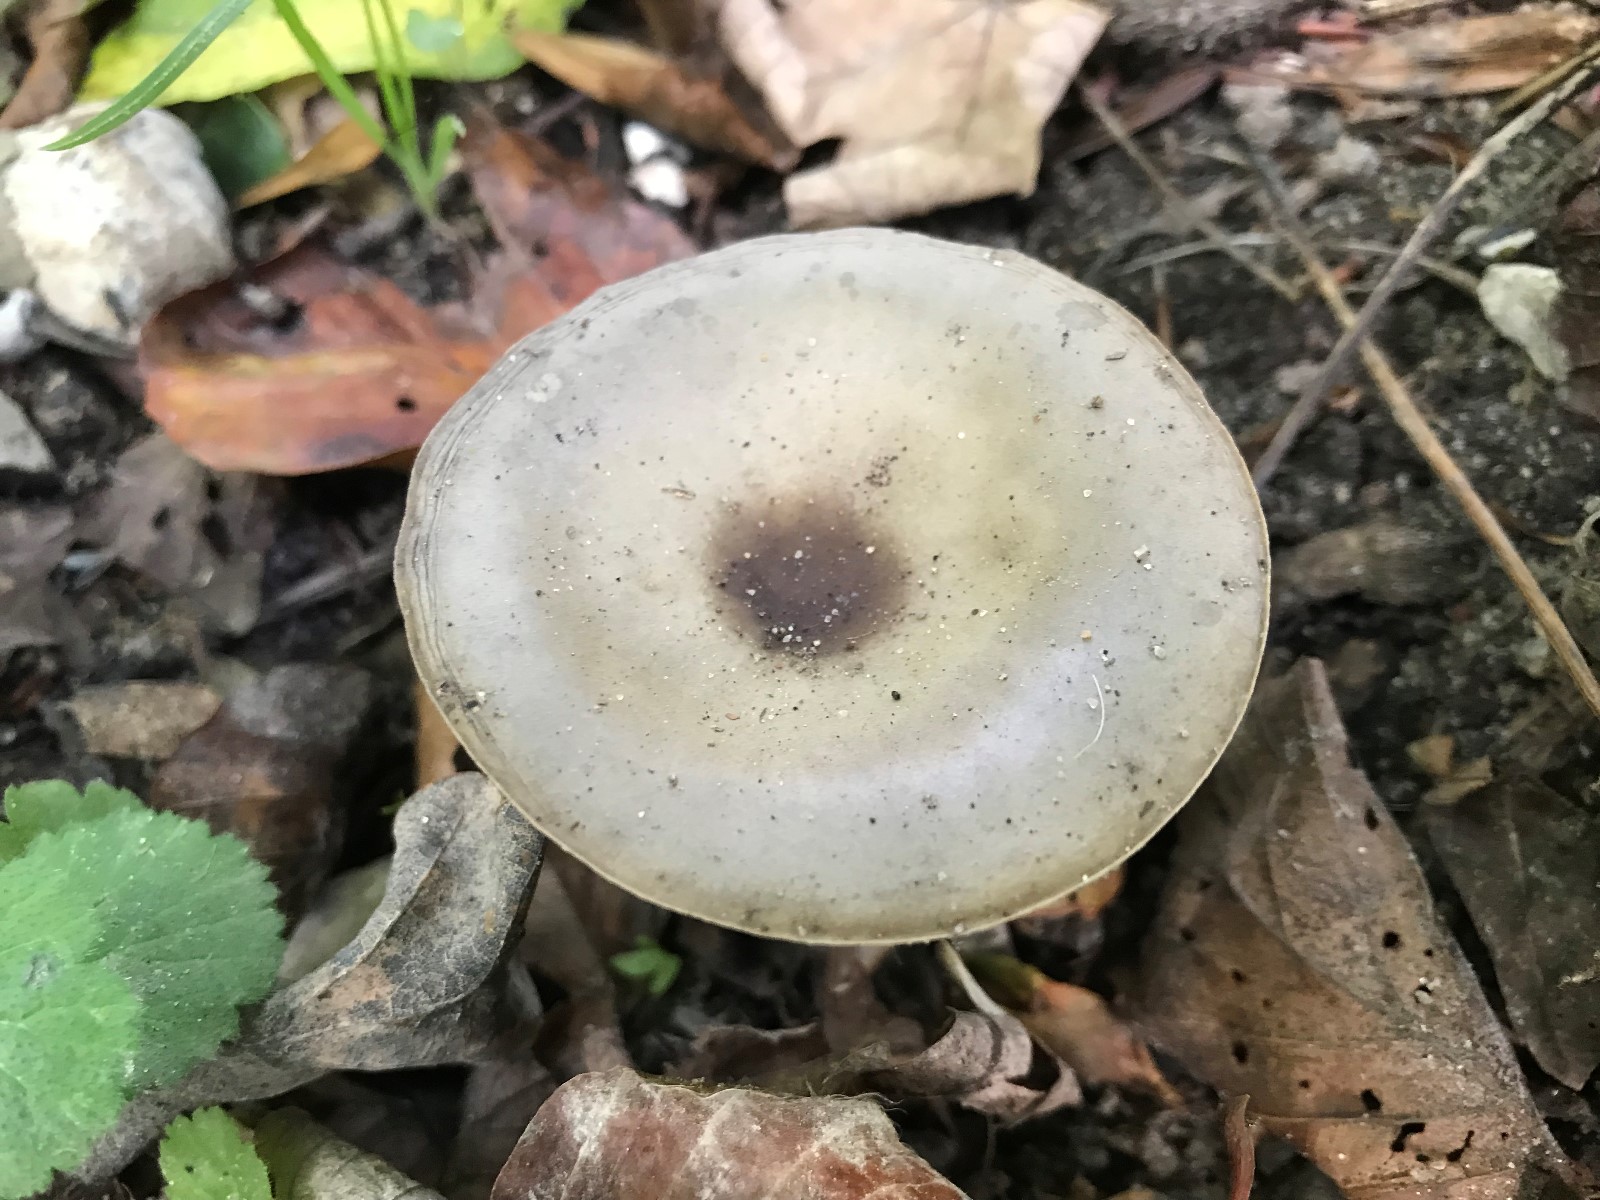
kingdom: Fungi
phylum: Basidiomycota
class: Agaricomycetes
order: Agaricales
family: Tricholomataceae
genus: Melanoleuca
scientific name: Melanoleuca
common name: munkehat
